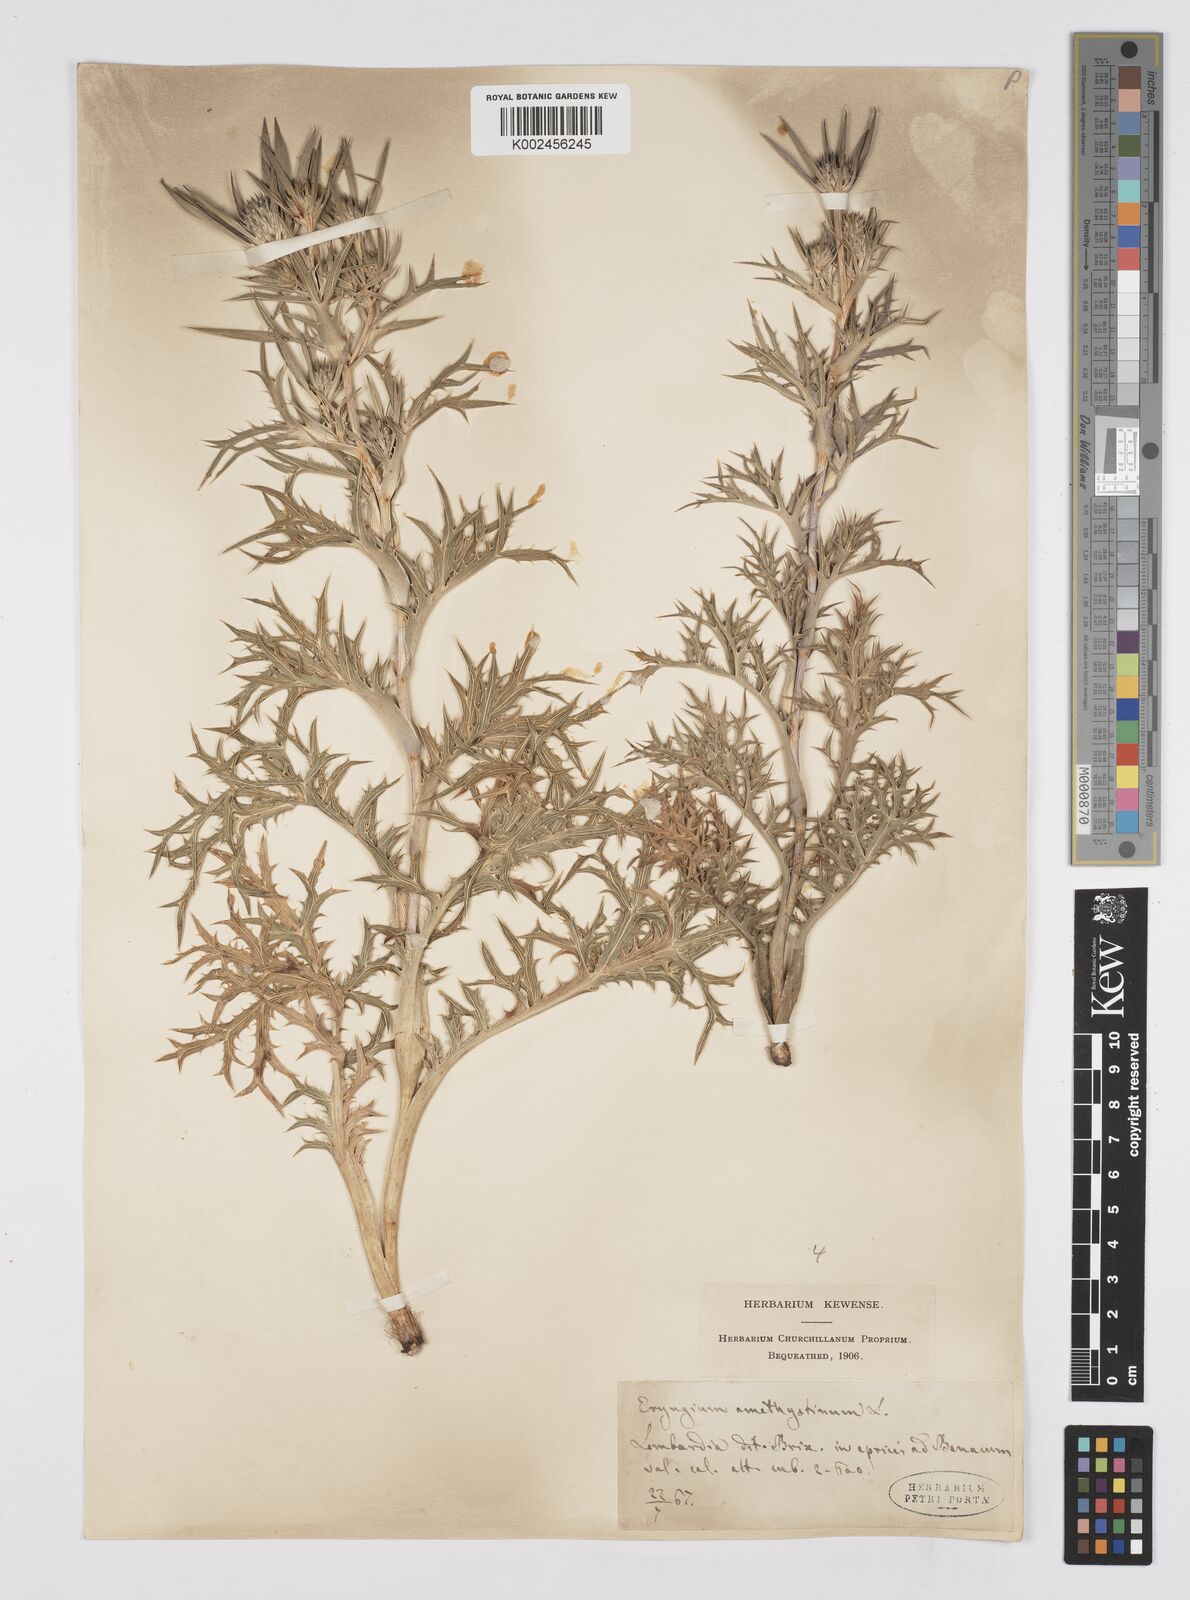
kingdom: Plantae
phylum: Tracheophyta
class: Magnoliopsida
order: Apiales
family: Apiaceae
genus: Eryngium
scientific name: Eryngium amethystinum
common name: Amethyst eryngo
